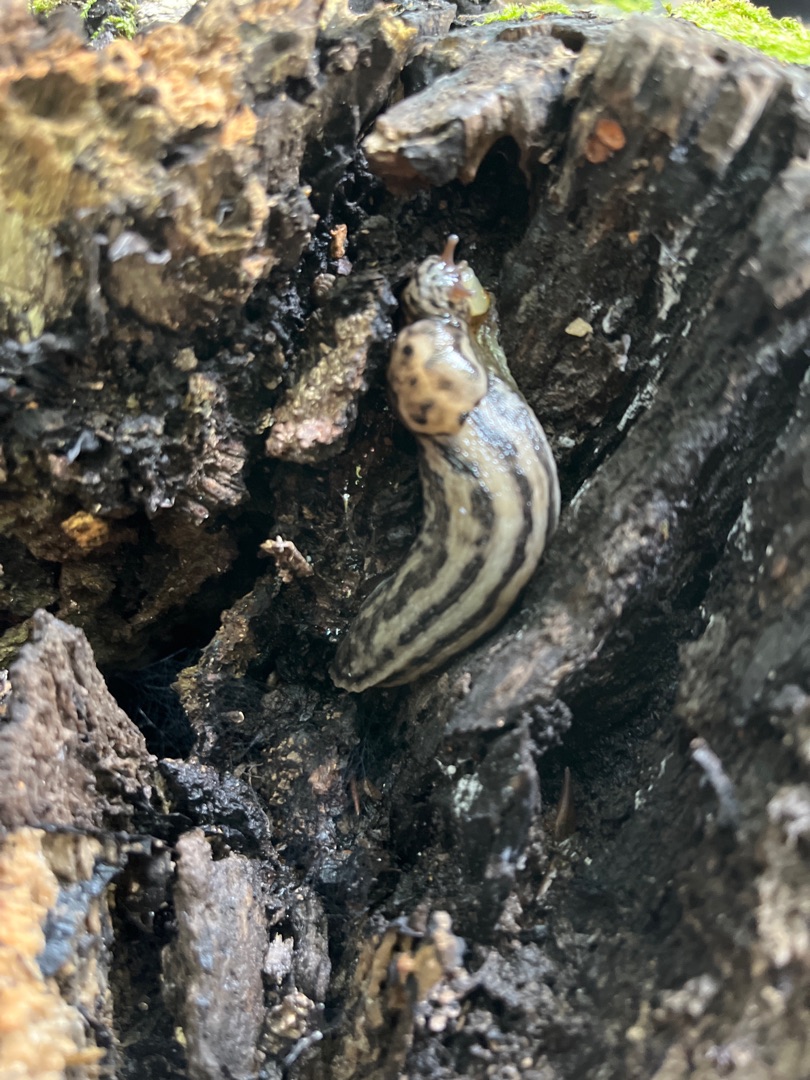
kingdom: Animalia
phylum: Mollusca
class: Gastropoda
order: Stylommatophora
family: Limacidae
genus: Limax
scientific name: Limax maximus
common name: Pantersnegl
